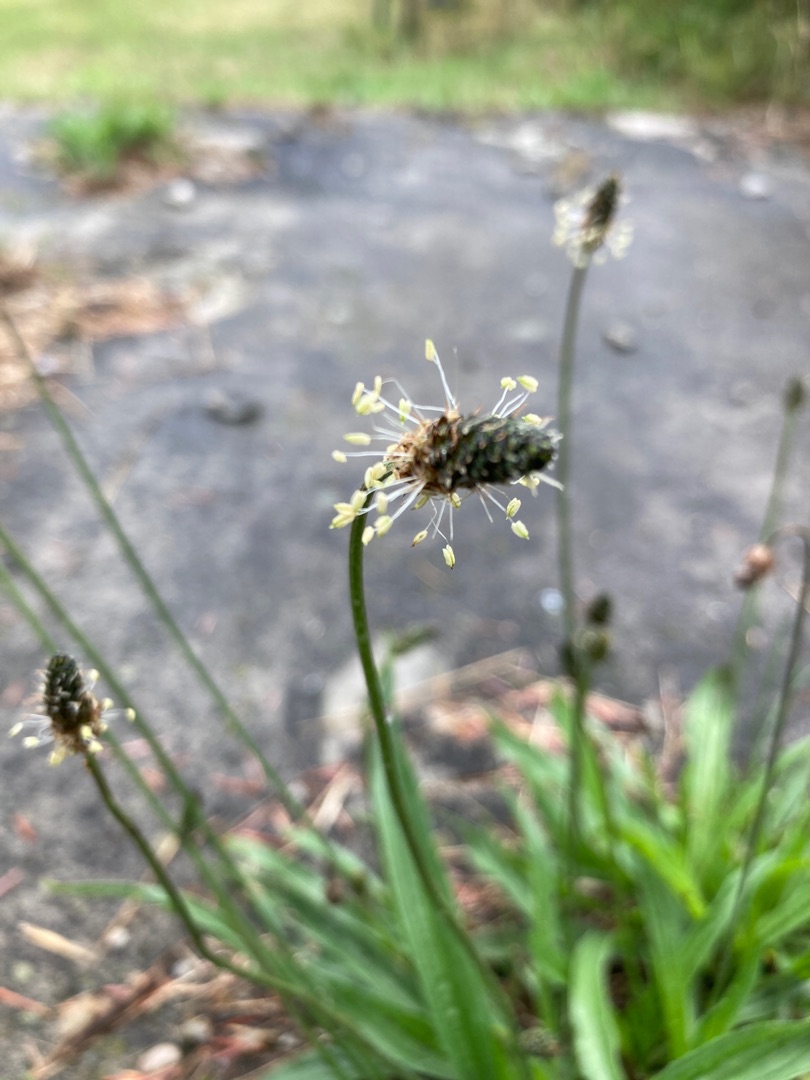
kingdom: Plantae
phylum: Tracheophyta
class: Magnoliopsida
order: Lamiales
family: Plantaginaceae
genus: Plantago
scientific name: Plantago lanceolata
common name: Lancet-vejbred
